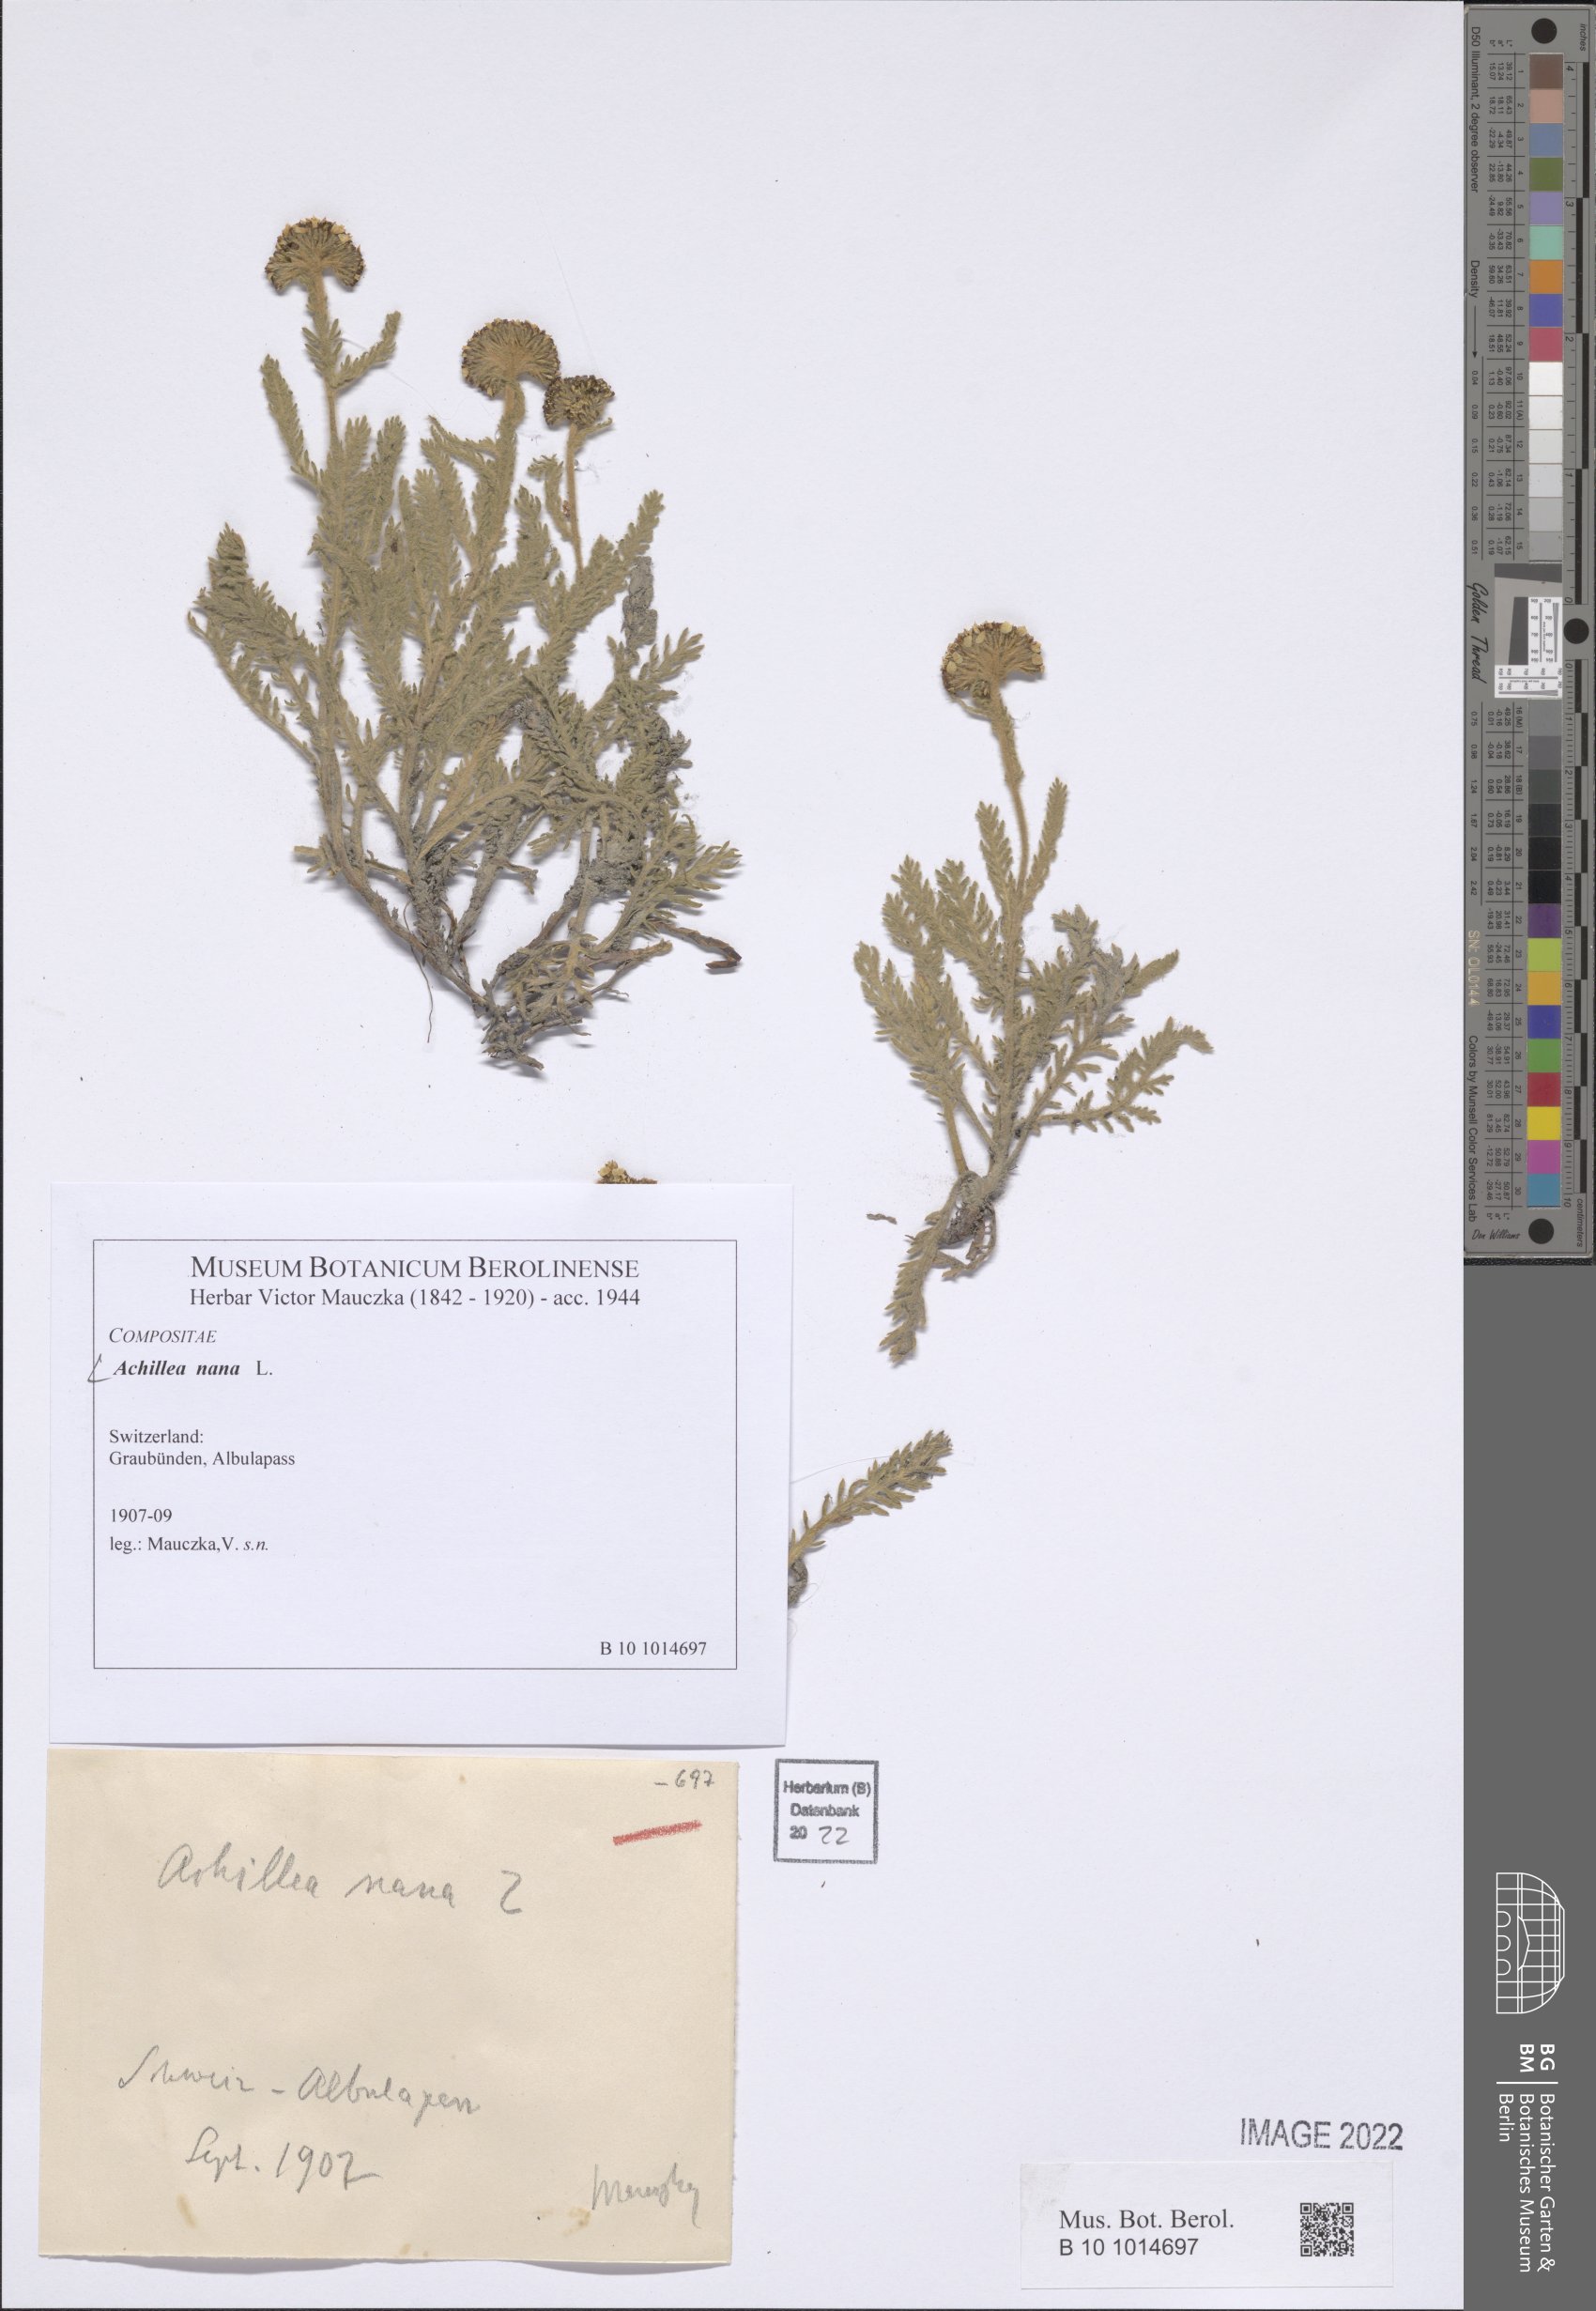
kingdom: Plantae
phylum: Tracheophyta
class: Magnoliopsida
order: Asterales
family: Asteraceae
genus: Achillea
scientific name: Achillea nana
